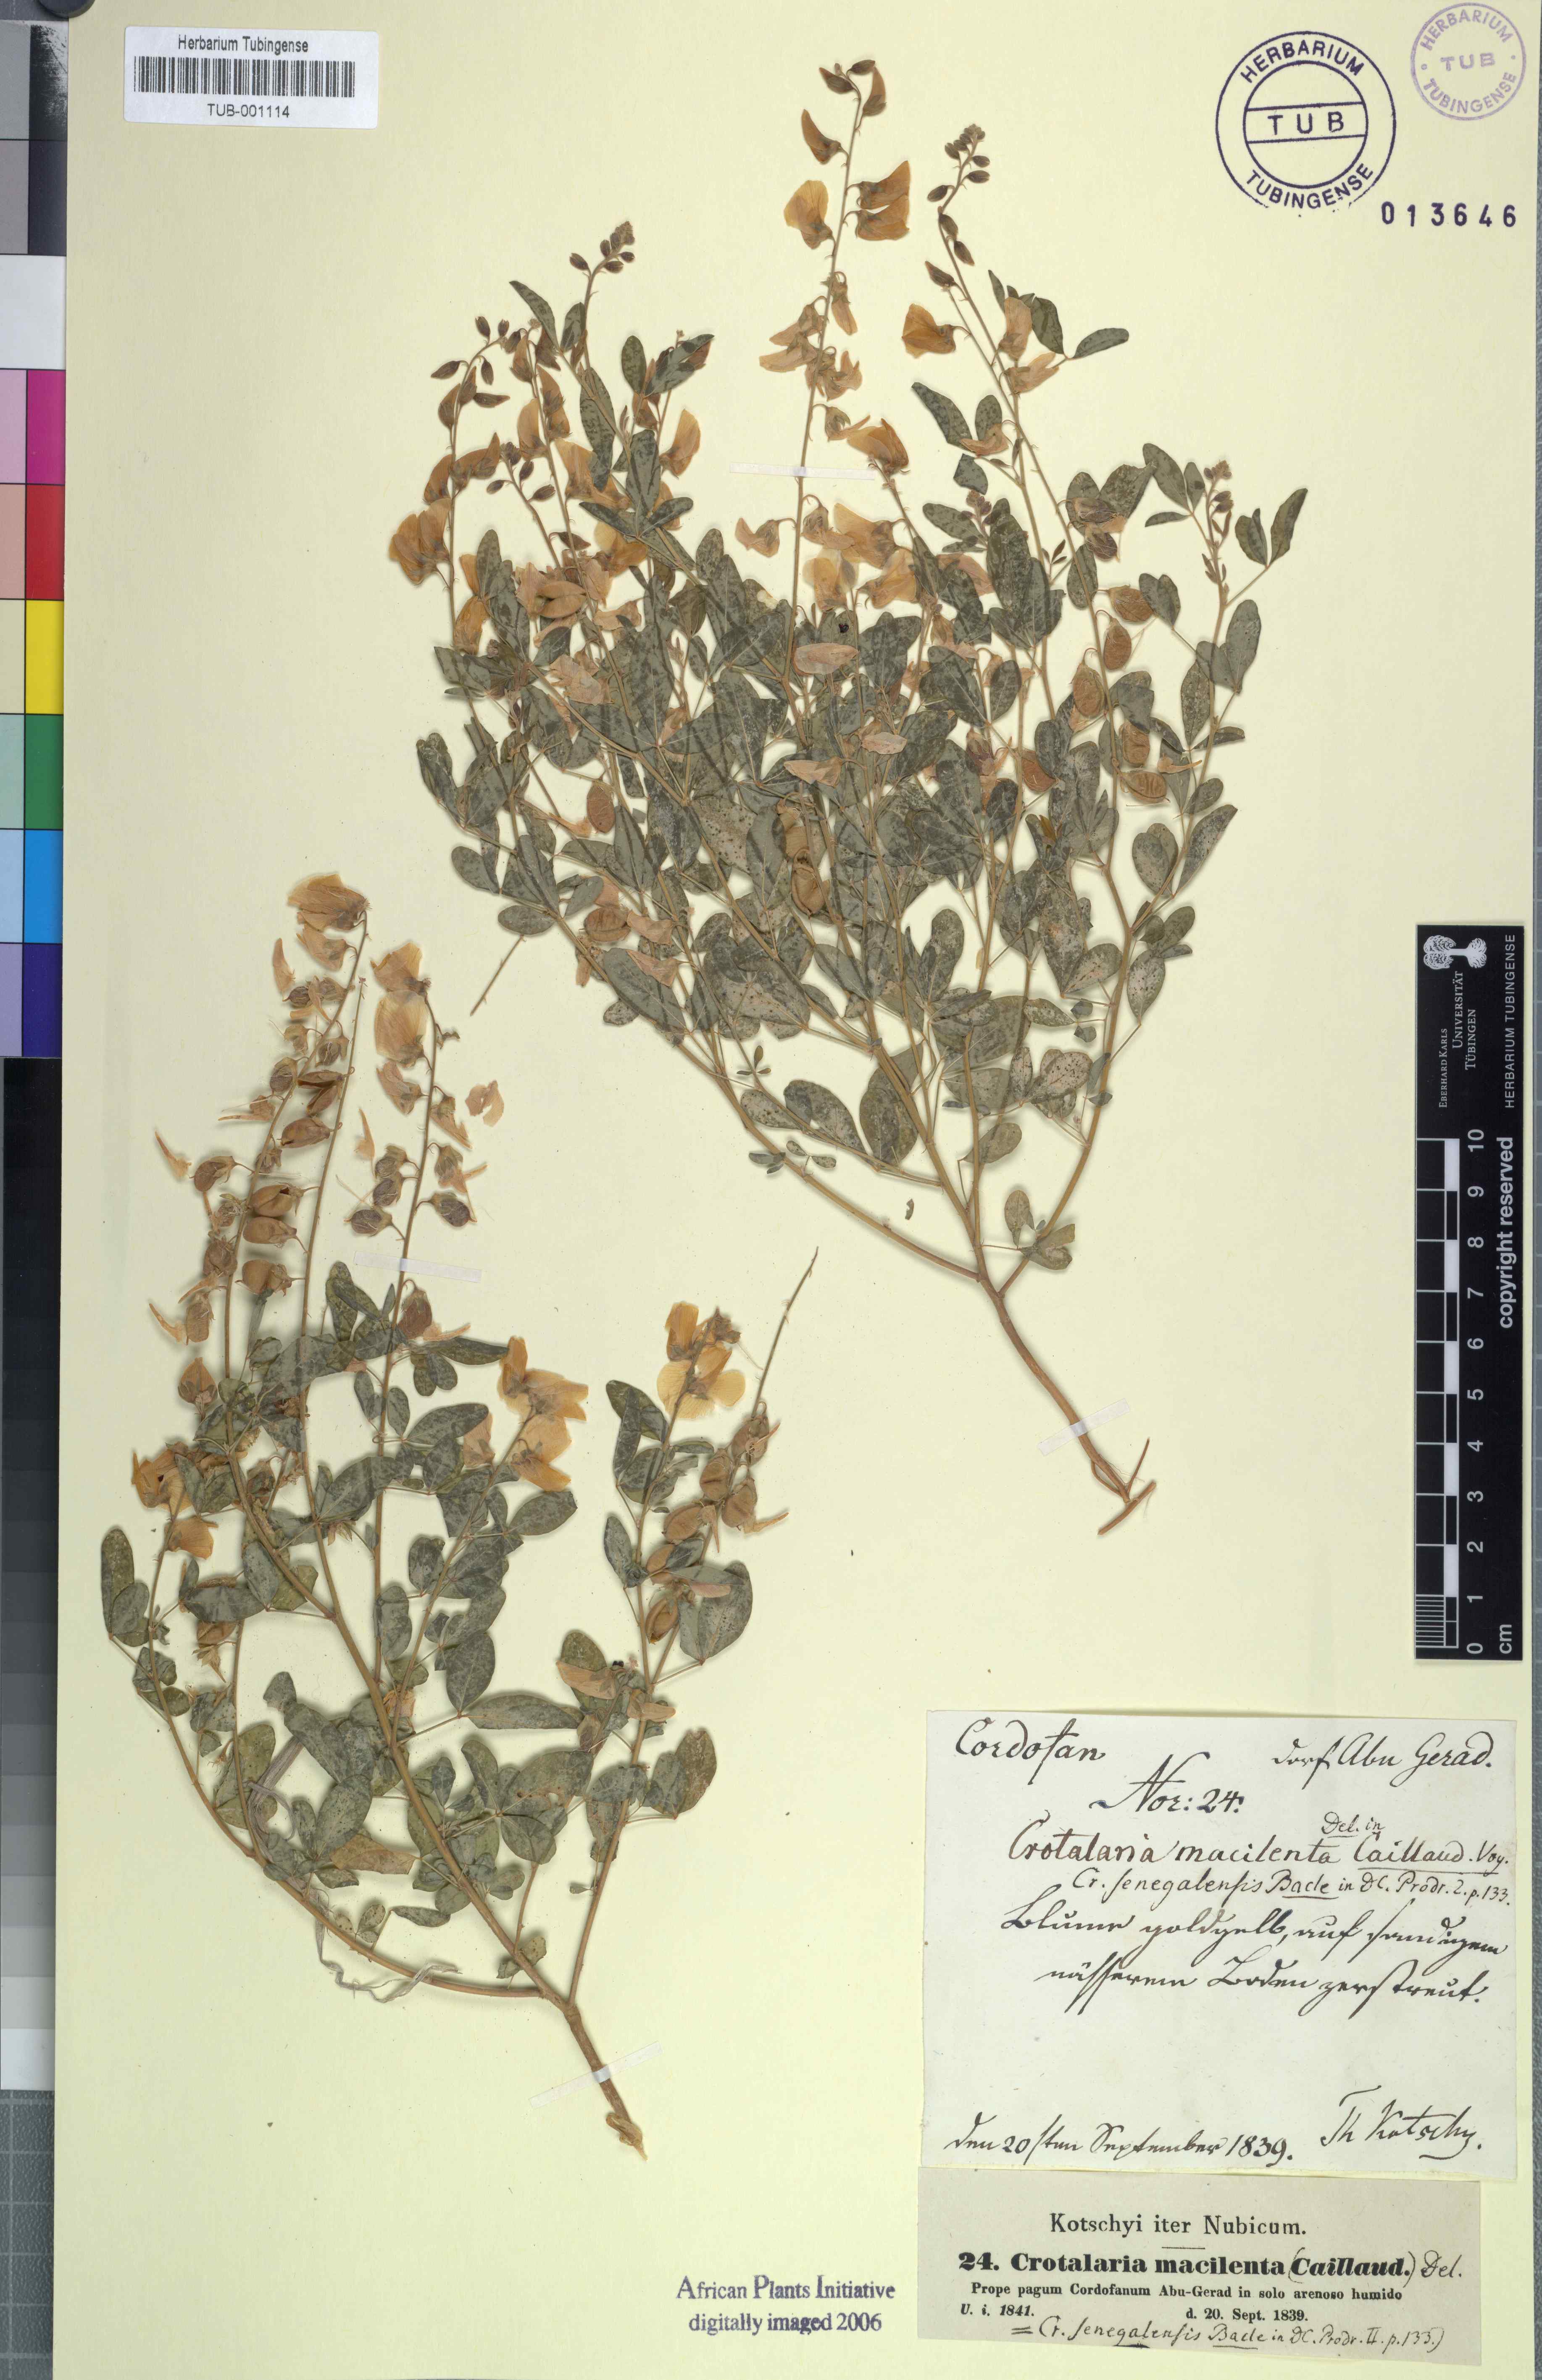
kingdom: Plantae
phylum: Tracheophyta
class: Magnoliopsida
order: Fabales
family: Fabaceae
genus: Crotalaria
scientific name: Crotalaria senegalensis
